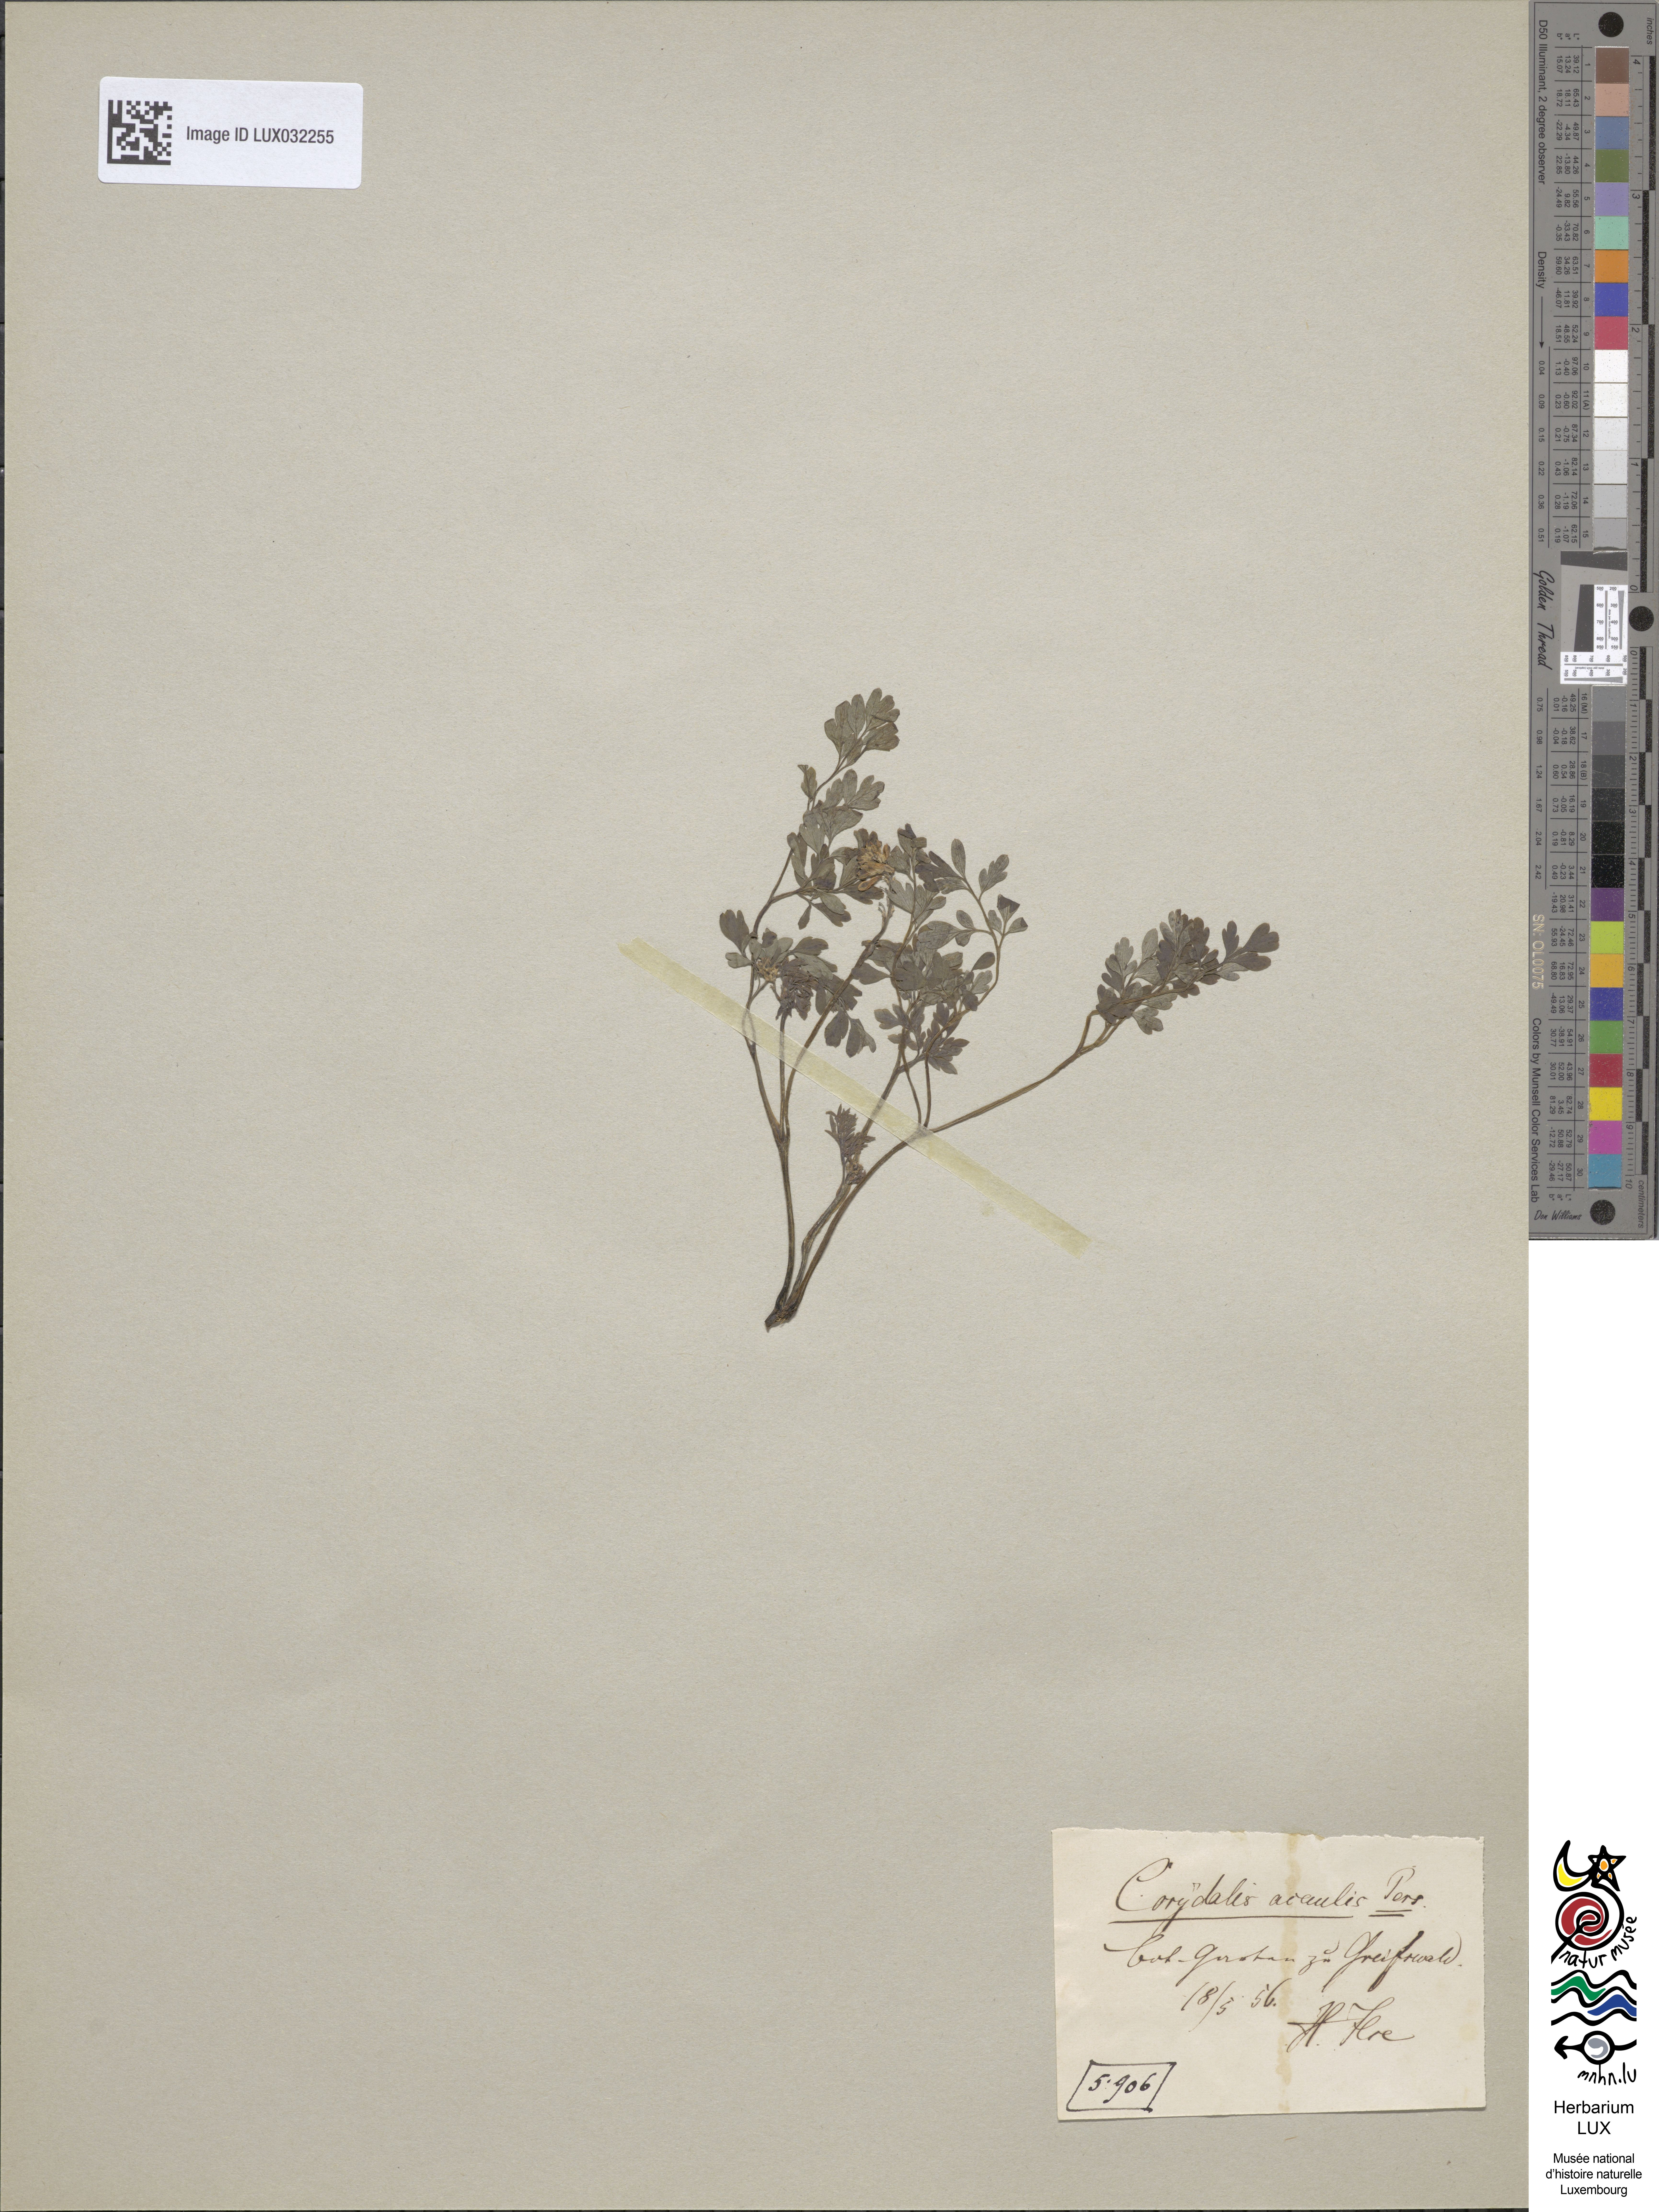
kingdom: Plantae
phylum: Tracheophyta
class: Magnoliopsida
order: Ranunculales
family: Papaveraceae
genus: Pseudofumaria
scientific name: Pseudofumaria alba
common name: Pale corydalis
